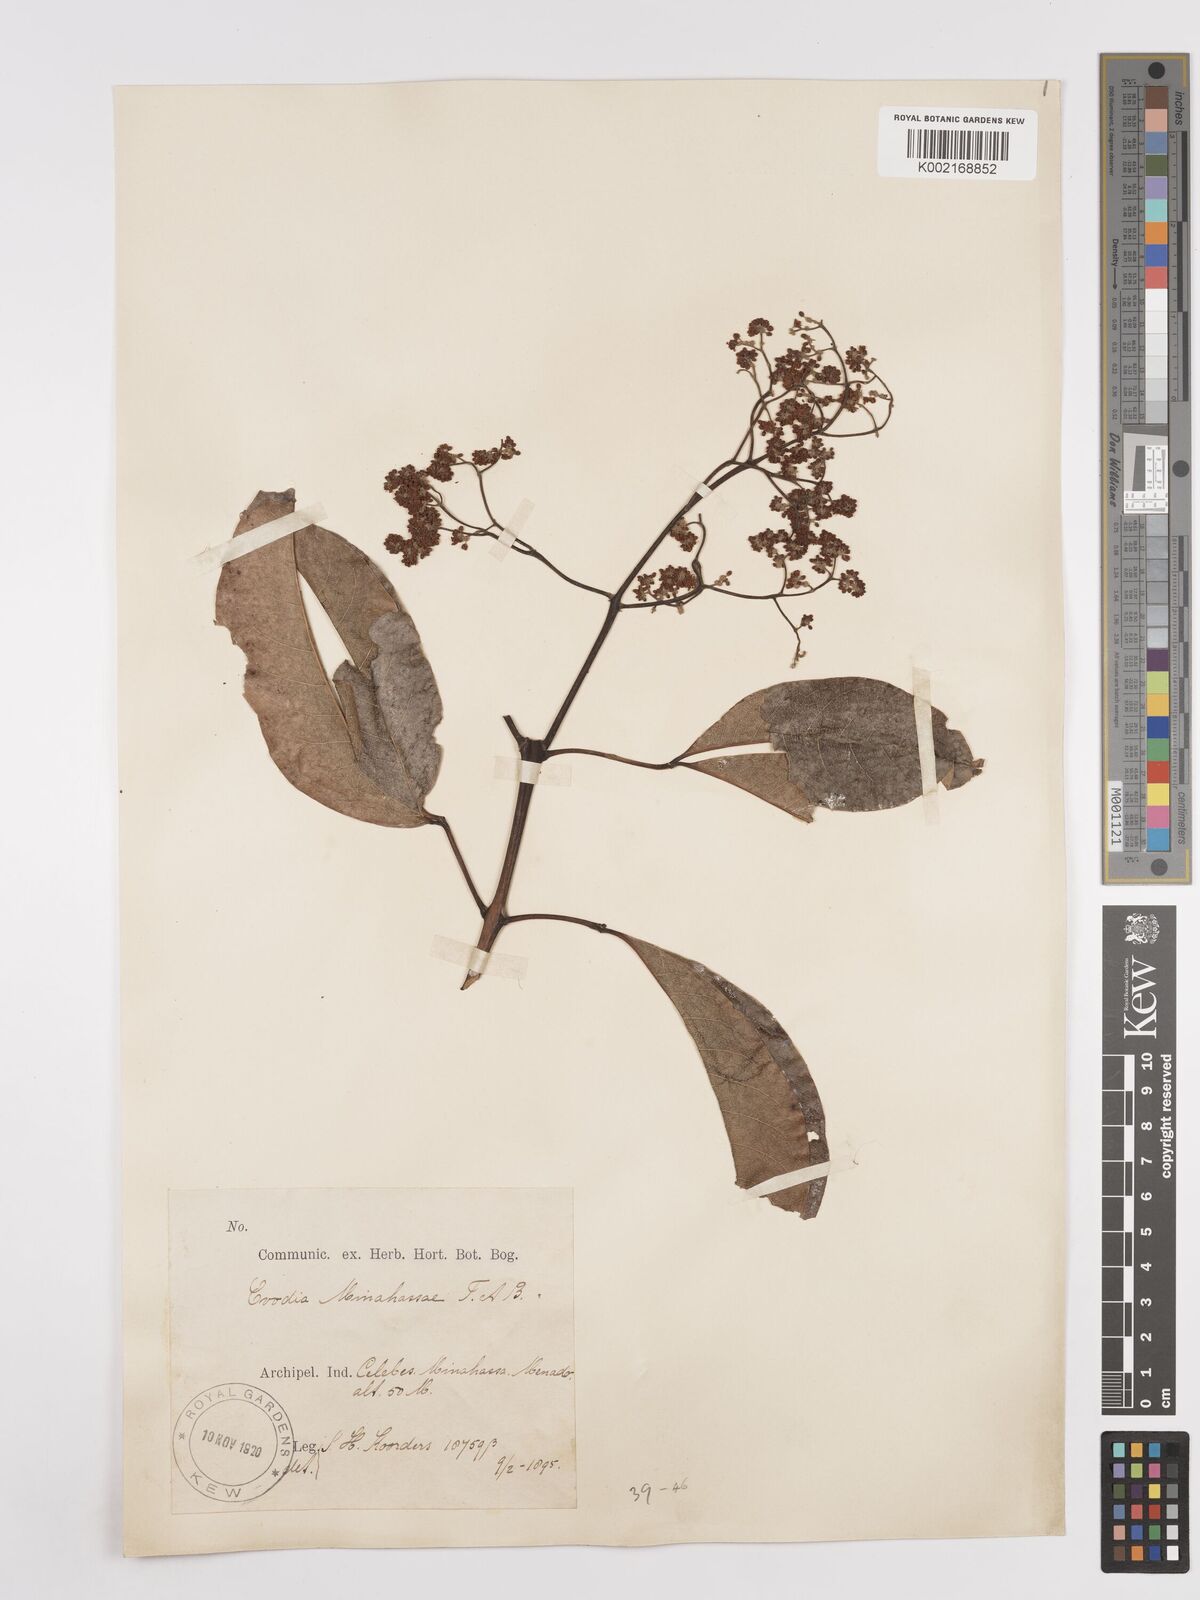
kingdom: Plantae
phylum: Tracheophyta
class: Magnoliopsida
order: Sapindales
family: Rutaceae
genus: Melicope
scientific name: Melicope triphylla
